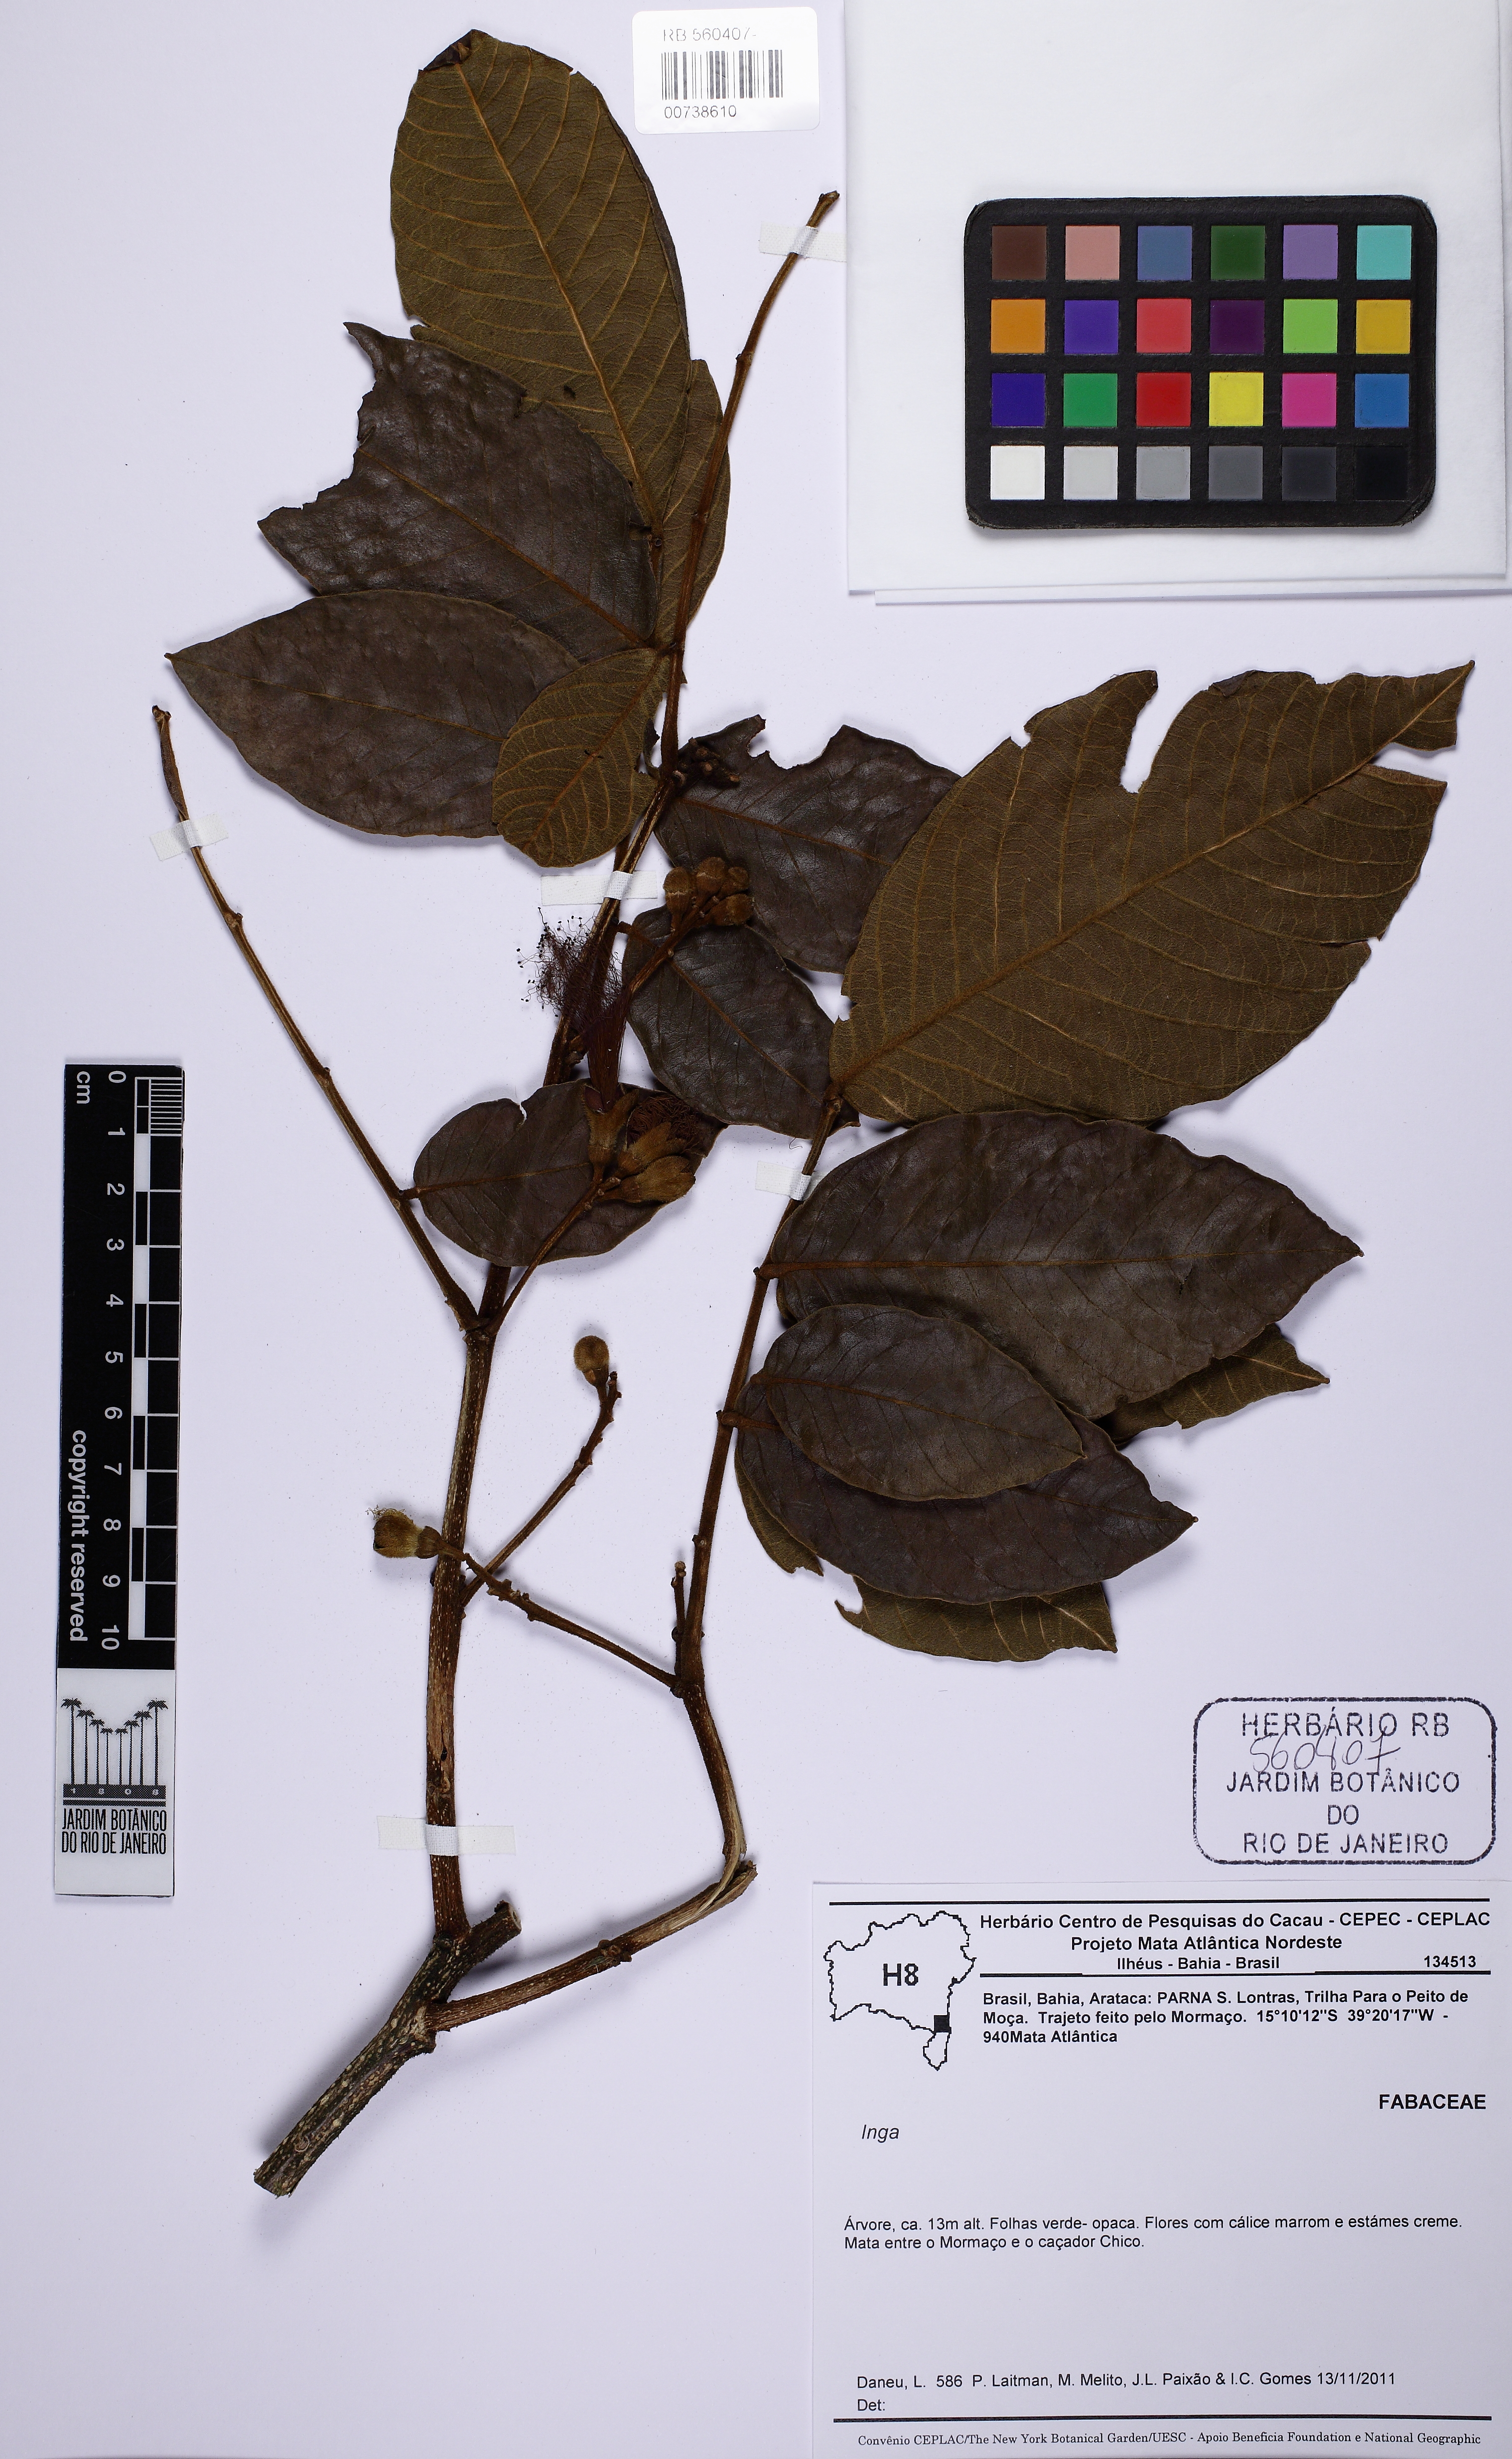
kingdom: Plantae
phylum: Tracheophyta
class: Magnoliopsida
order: Fabales
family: Fabaceae
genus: Inga
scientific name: Inga
